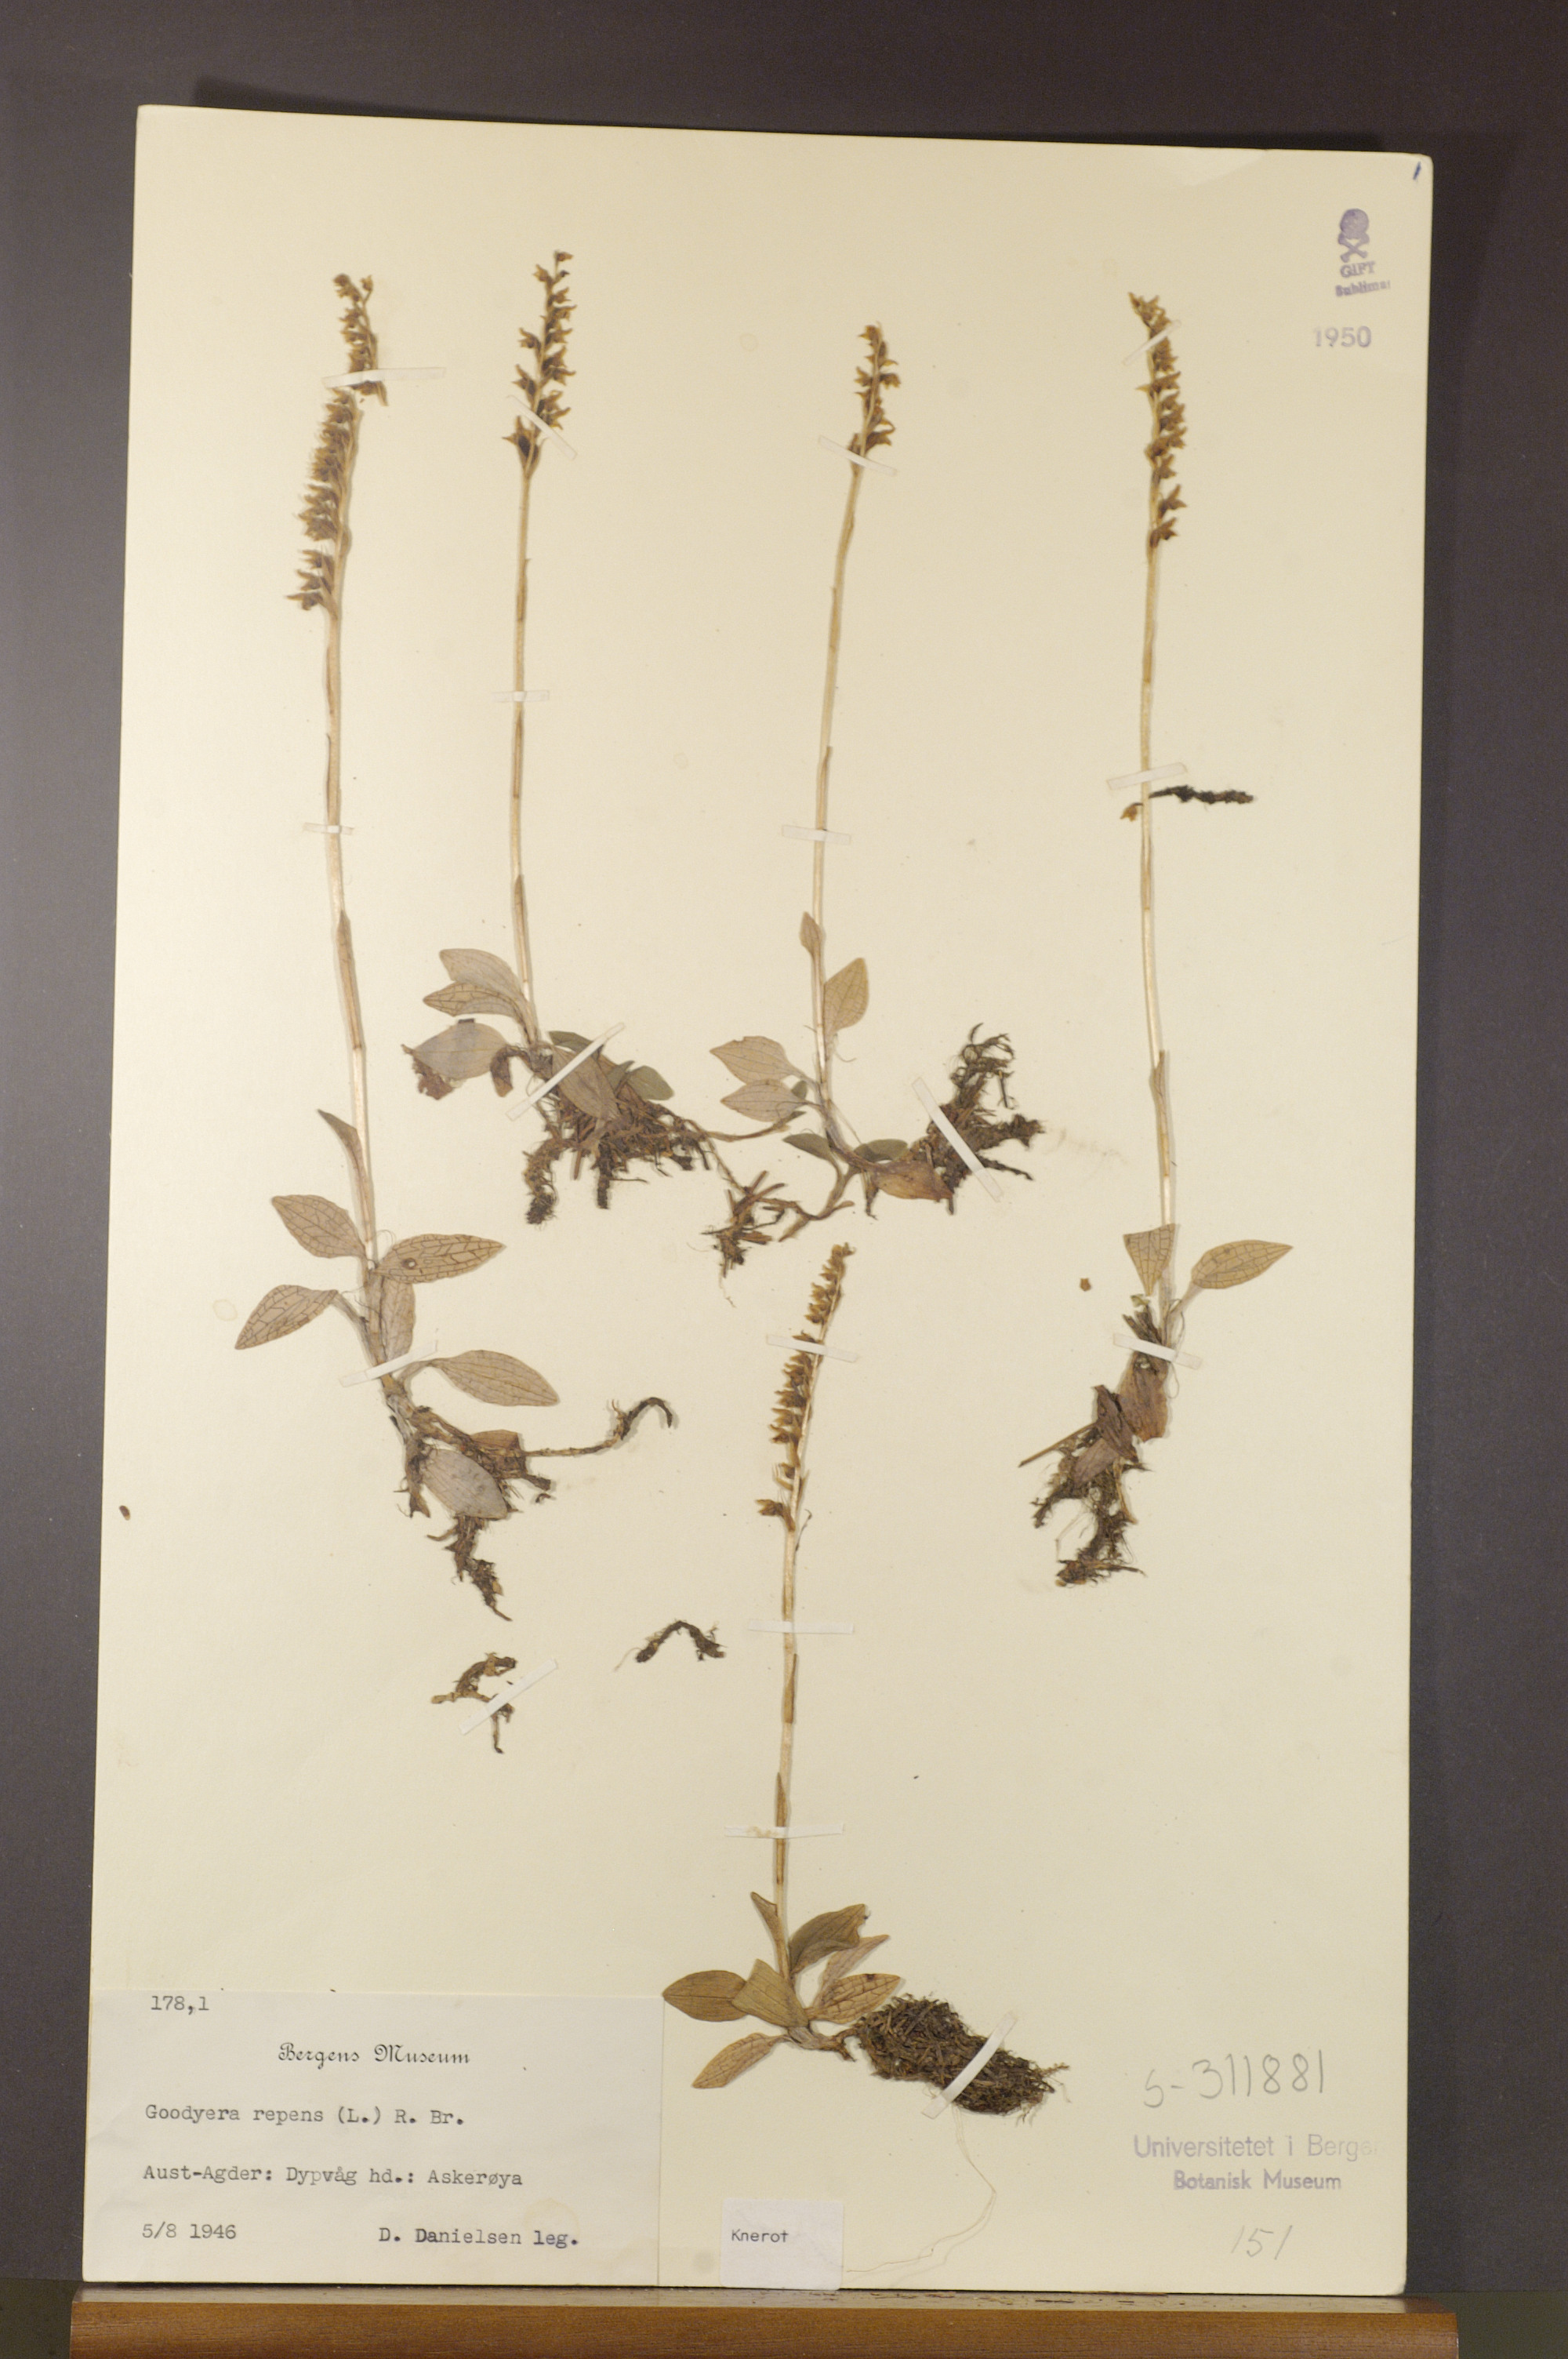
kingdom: Plantae
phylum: Tracheophyta
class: Liliopsida
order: Asparagales
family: Orchidaceae
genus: Goodyera
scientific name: Goodyera repens
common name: Creeping lady's-tresses
